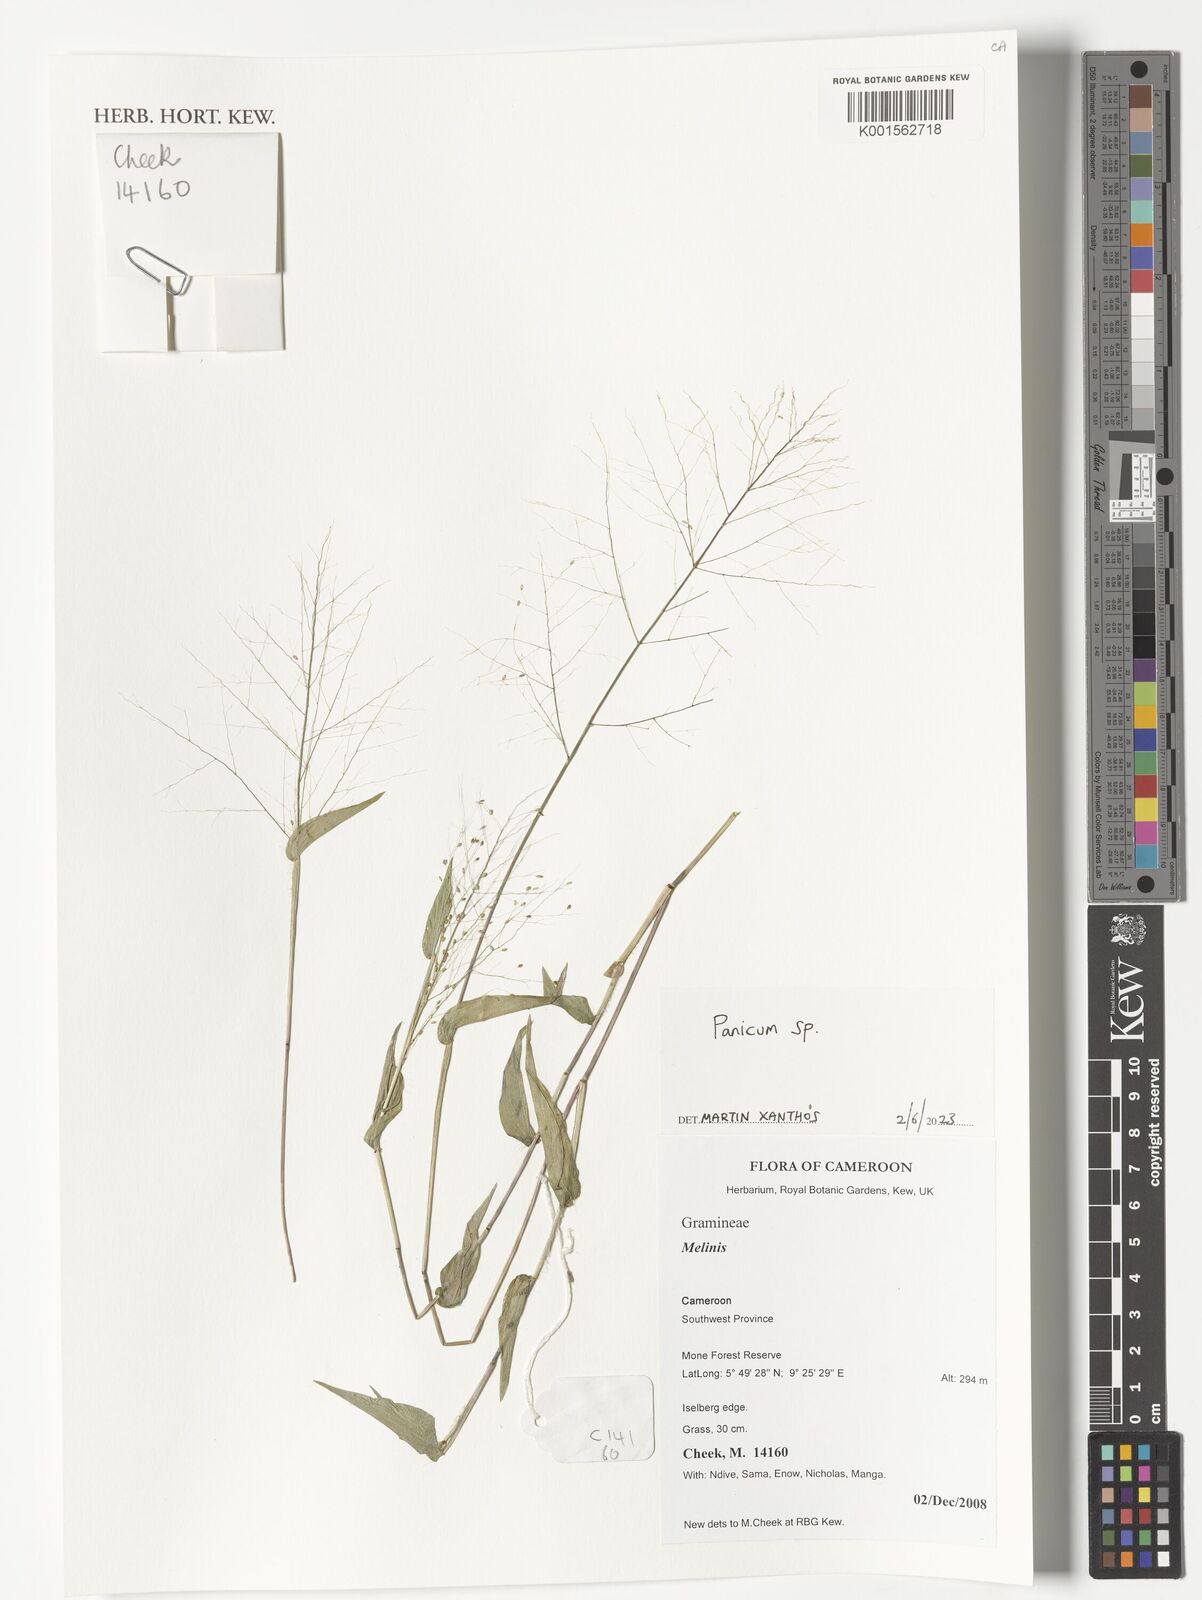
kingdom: Plantae
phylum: Tracheophyta
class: Liliopsida
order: Poales
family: Poaceae
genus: Panicum
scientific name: Panicum
